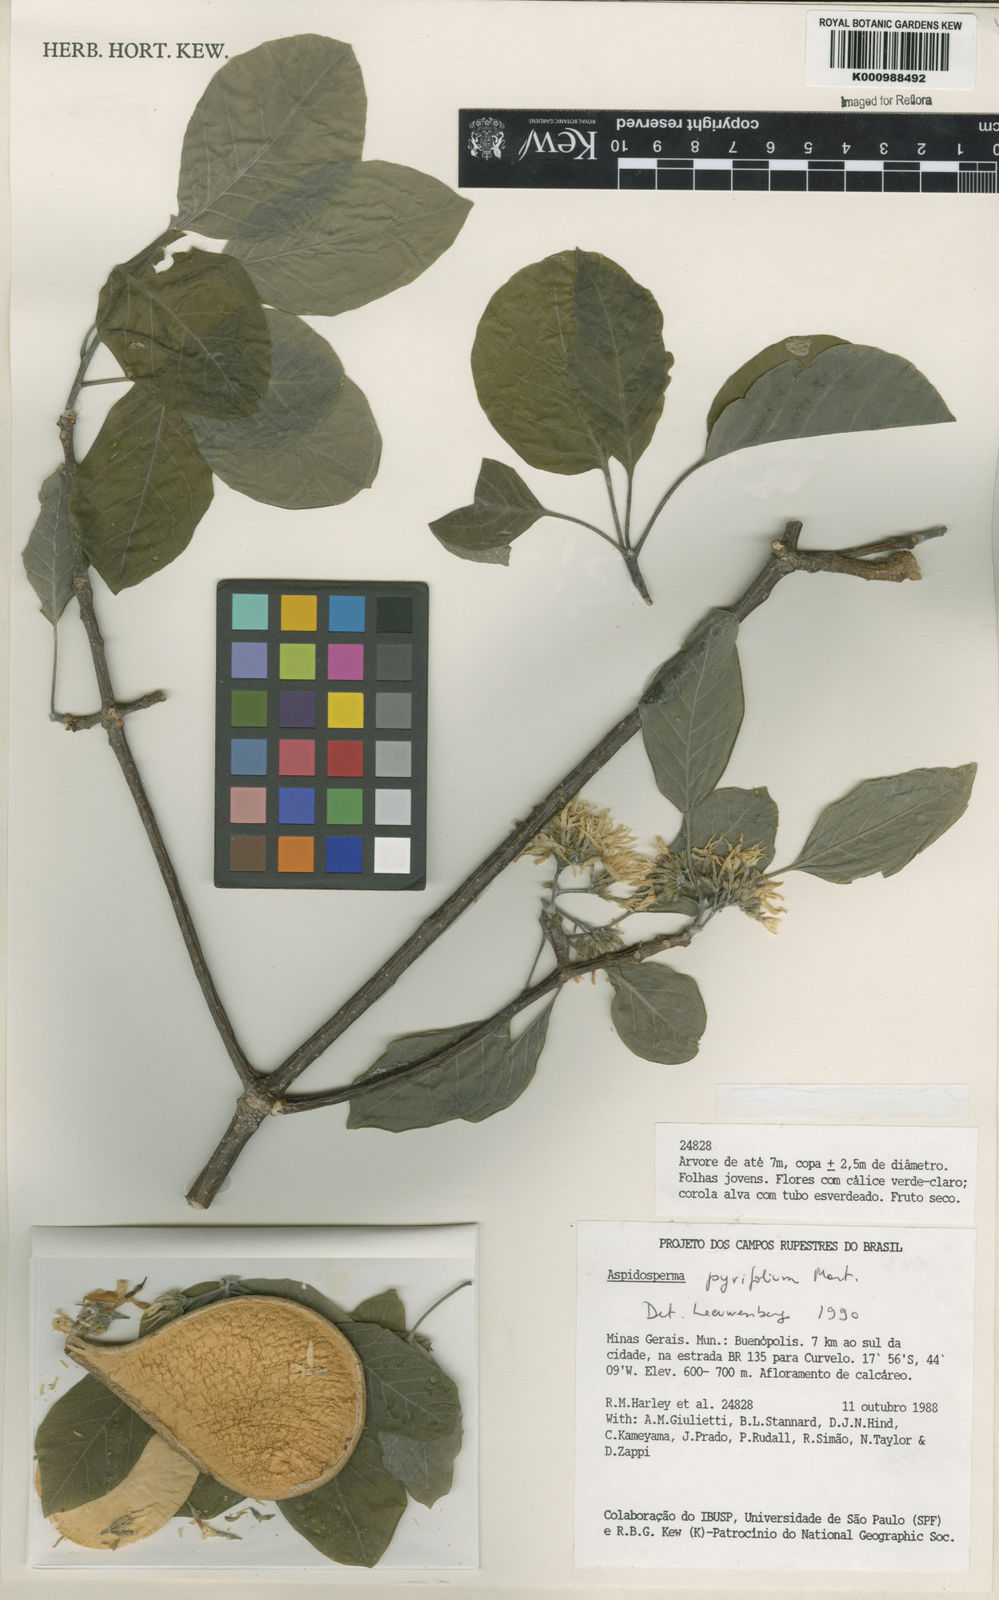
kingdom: Plantae
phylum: Tracheophyta
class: Magnoliopsida
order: Gentianales
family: Apocynaceae
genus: Aspidosperma
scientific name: Aspidosperma pyrifolium
